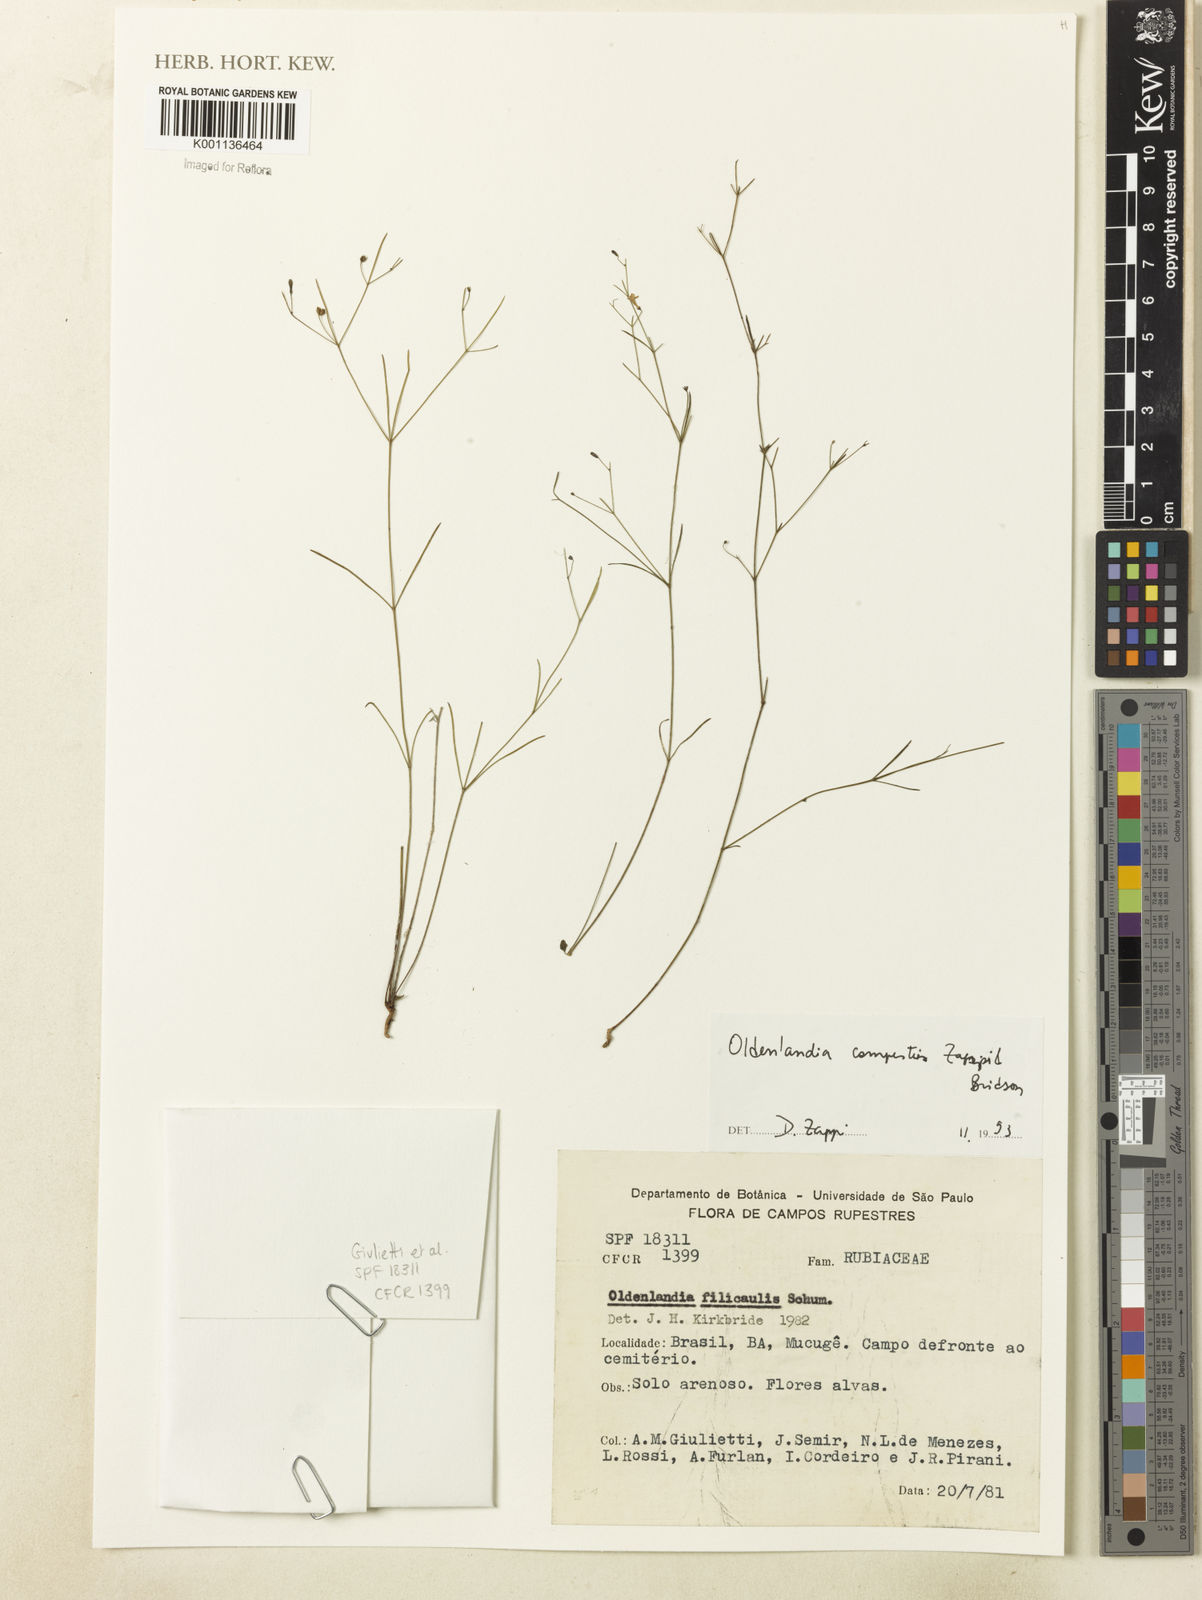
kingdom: Plantae
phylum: Tracheophyta
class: Magnoliopsida
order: Gentianales
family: Rubiaceae
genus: Oldenlandia
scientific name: Oldenlandia
